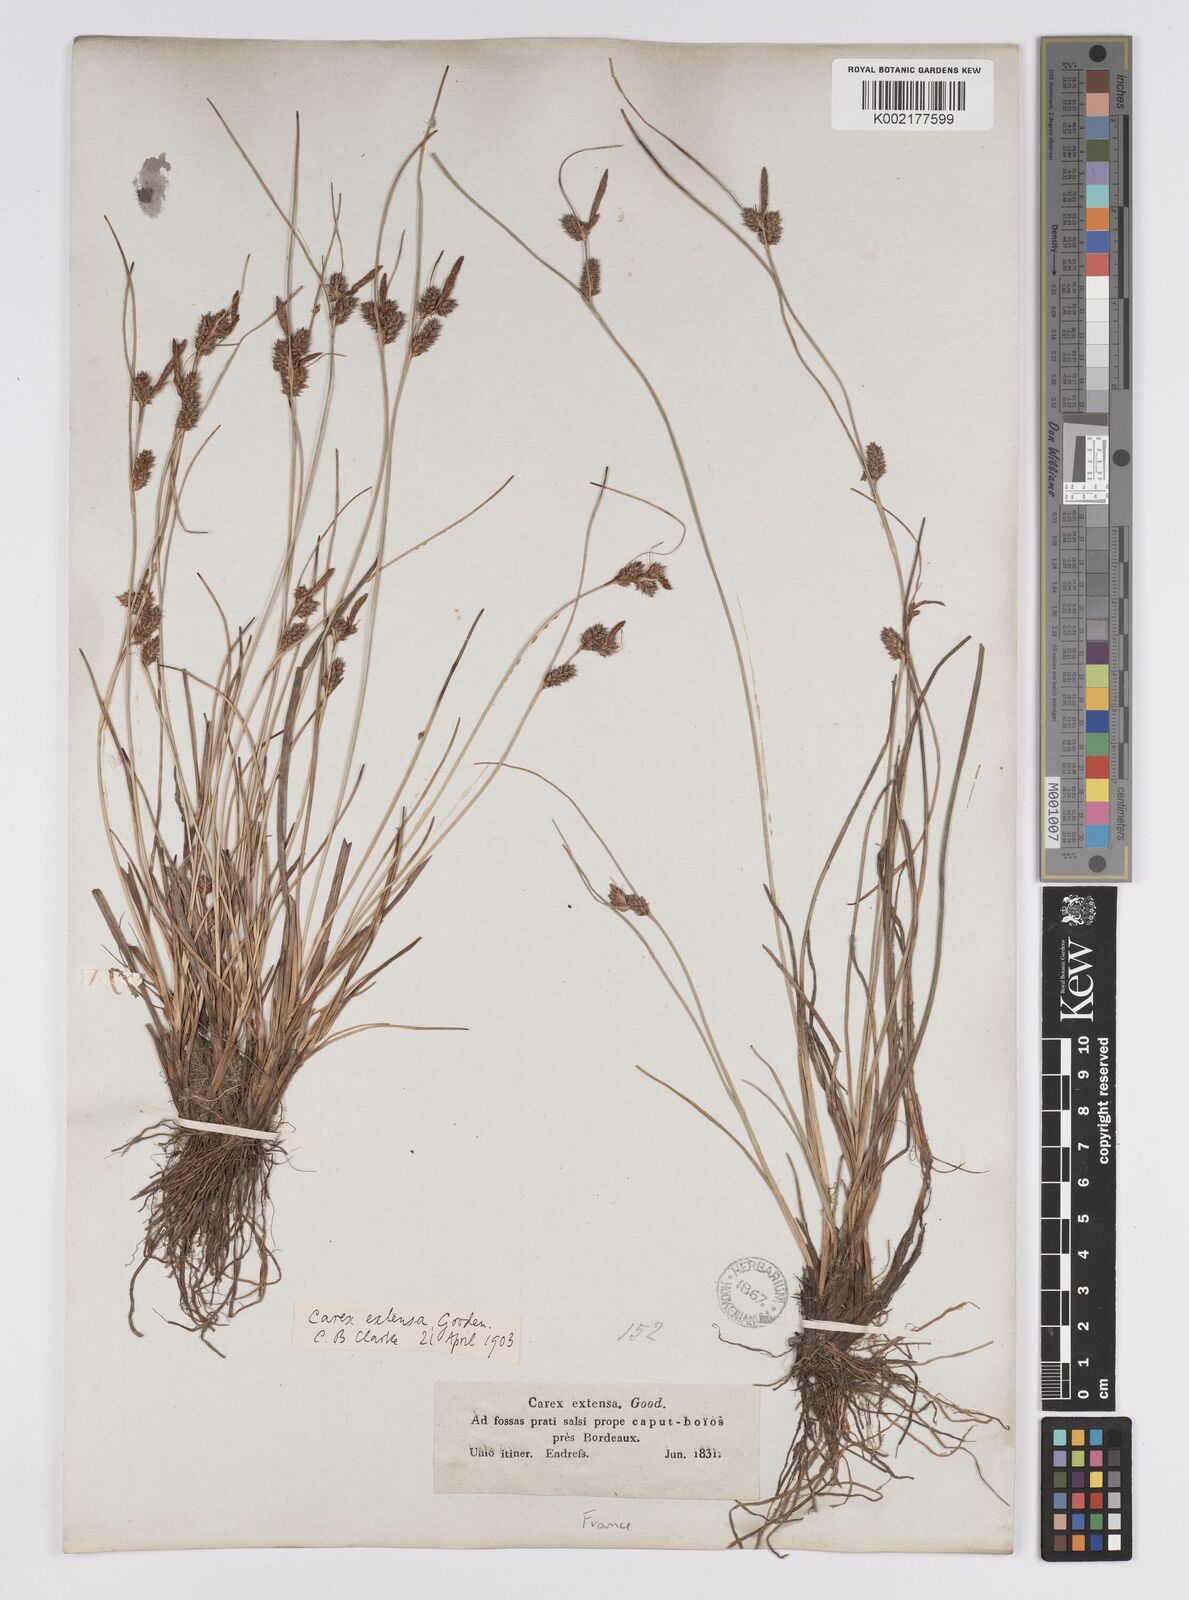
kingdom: Plantae
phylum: Tracheophyta
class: Liliopsida
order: Poales
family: Cyperaceae
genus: Carex
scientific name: Carex extensa
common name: Long-bracted sedge
